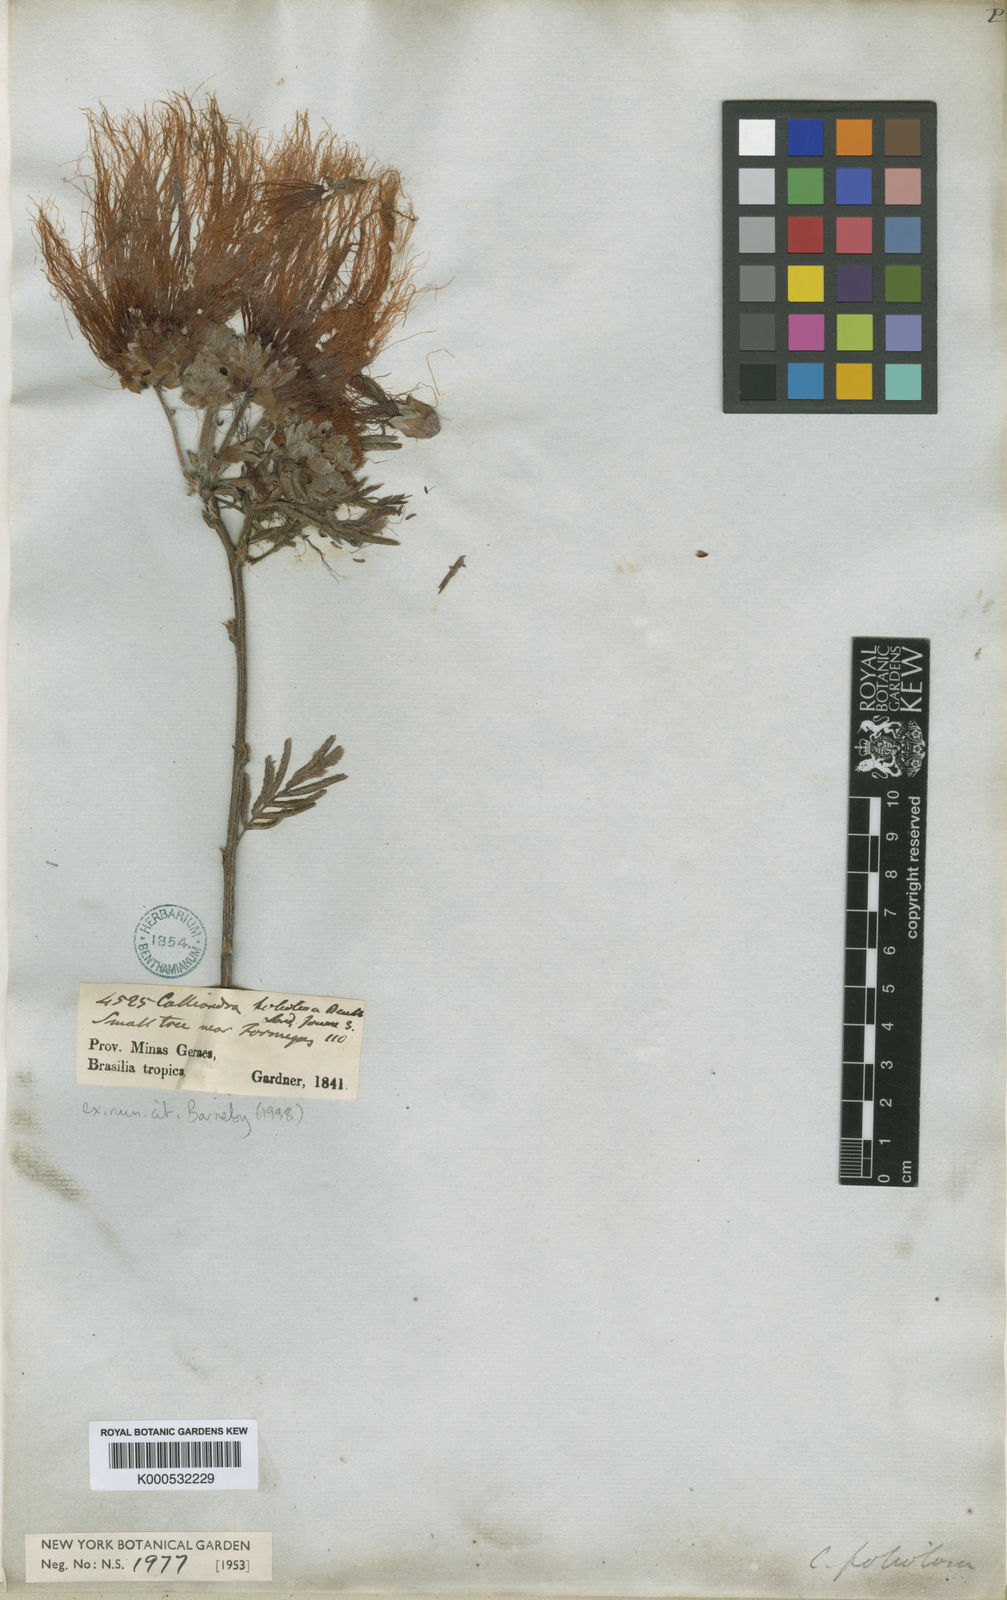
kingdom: Plantae
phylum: Tracheophyta
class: Magnoliopsida
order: Fabales
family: Fabaceae
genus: Calliandra
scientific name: Calliandra
